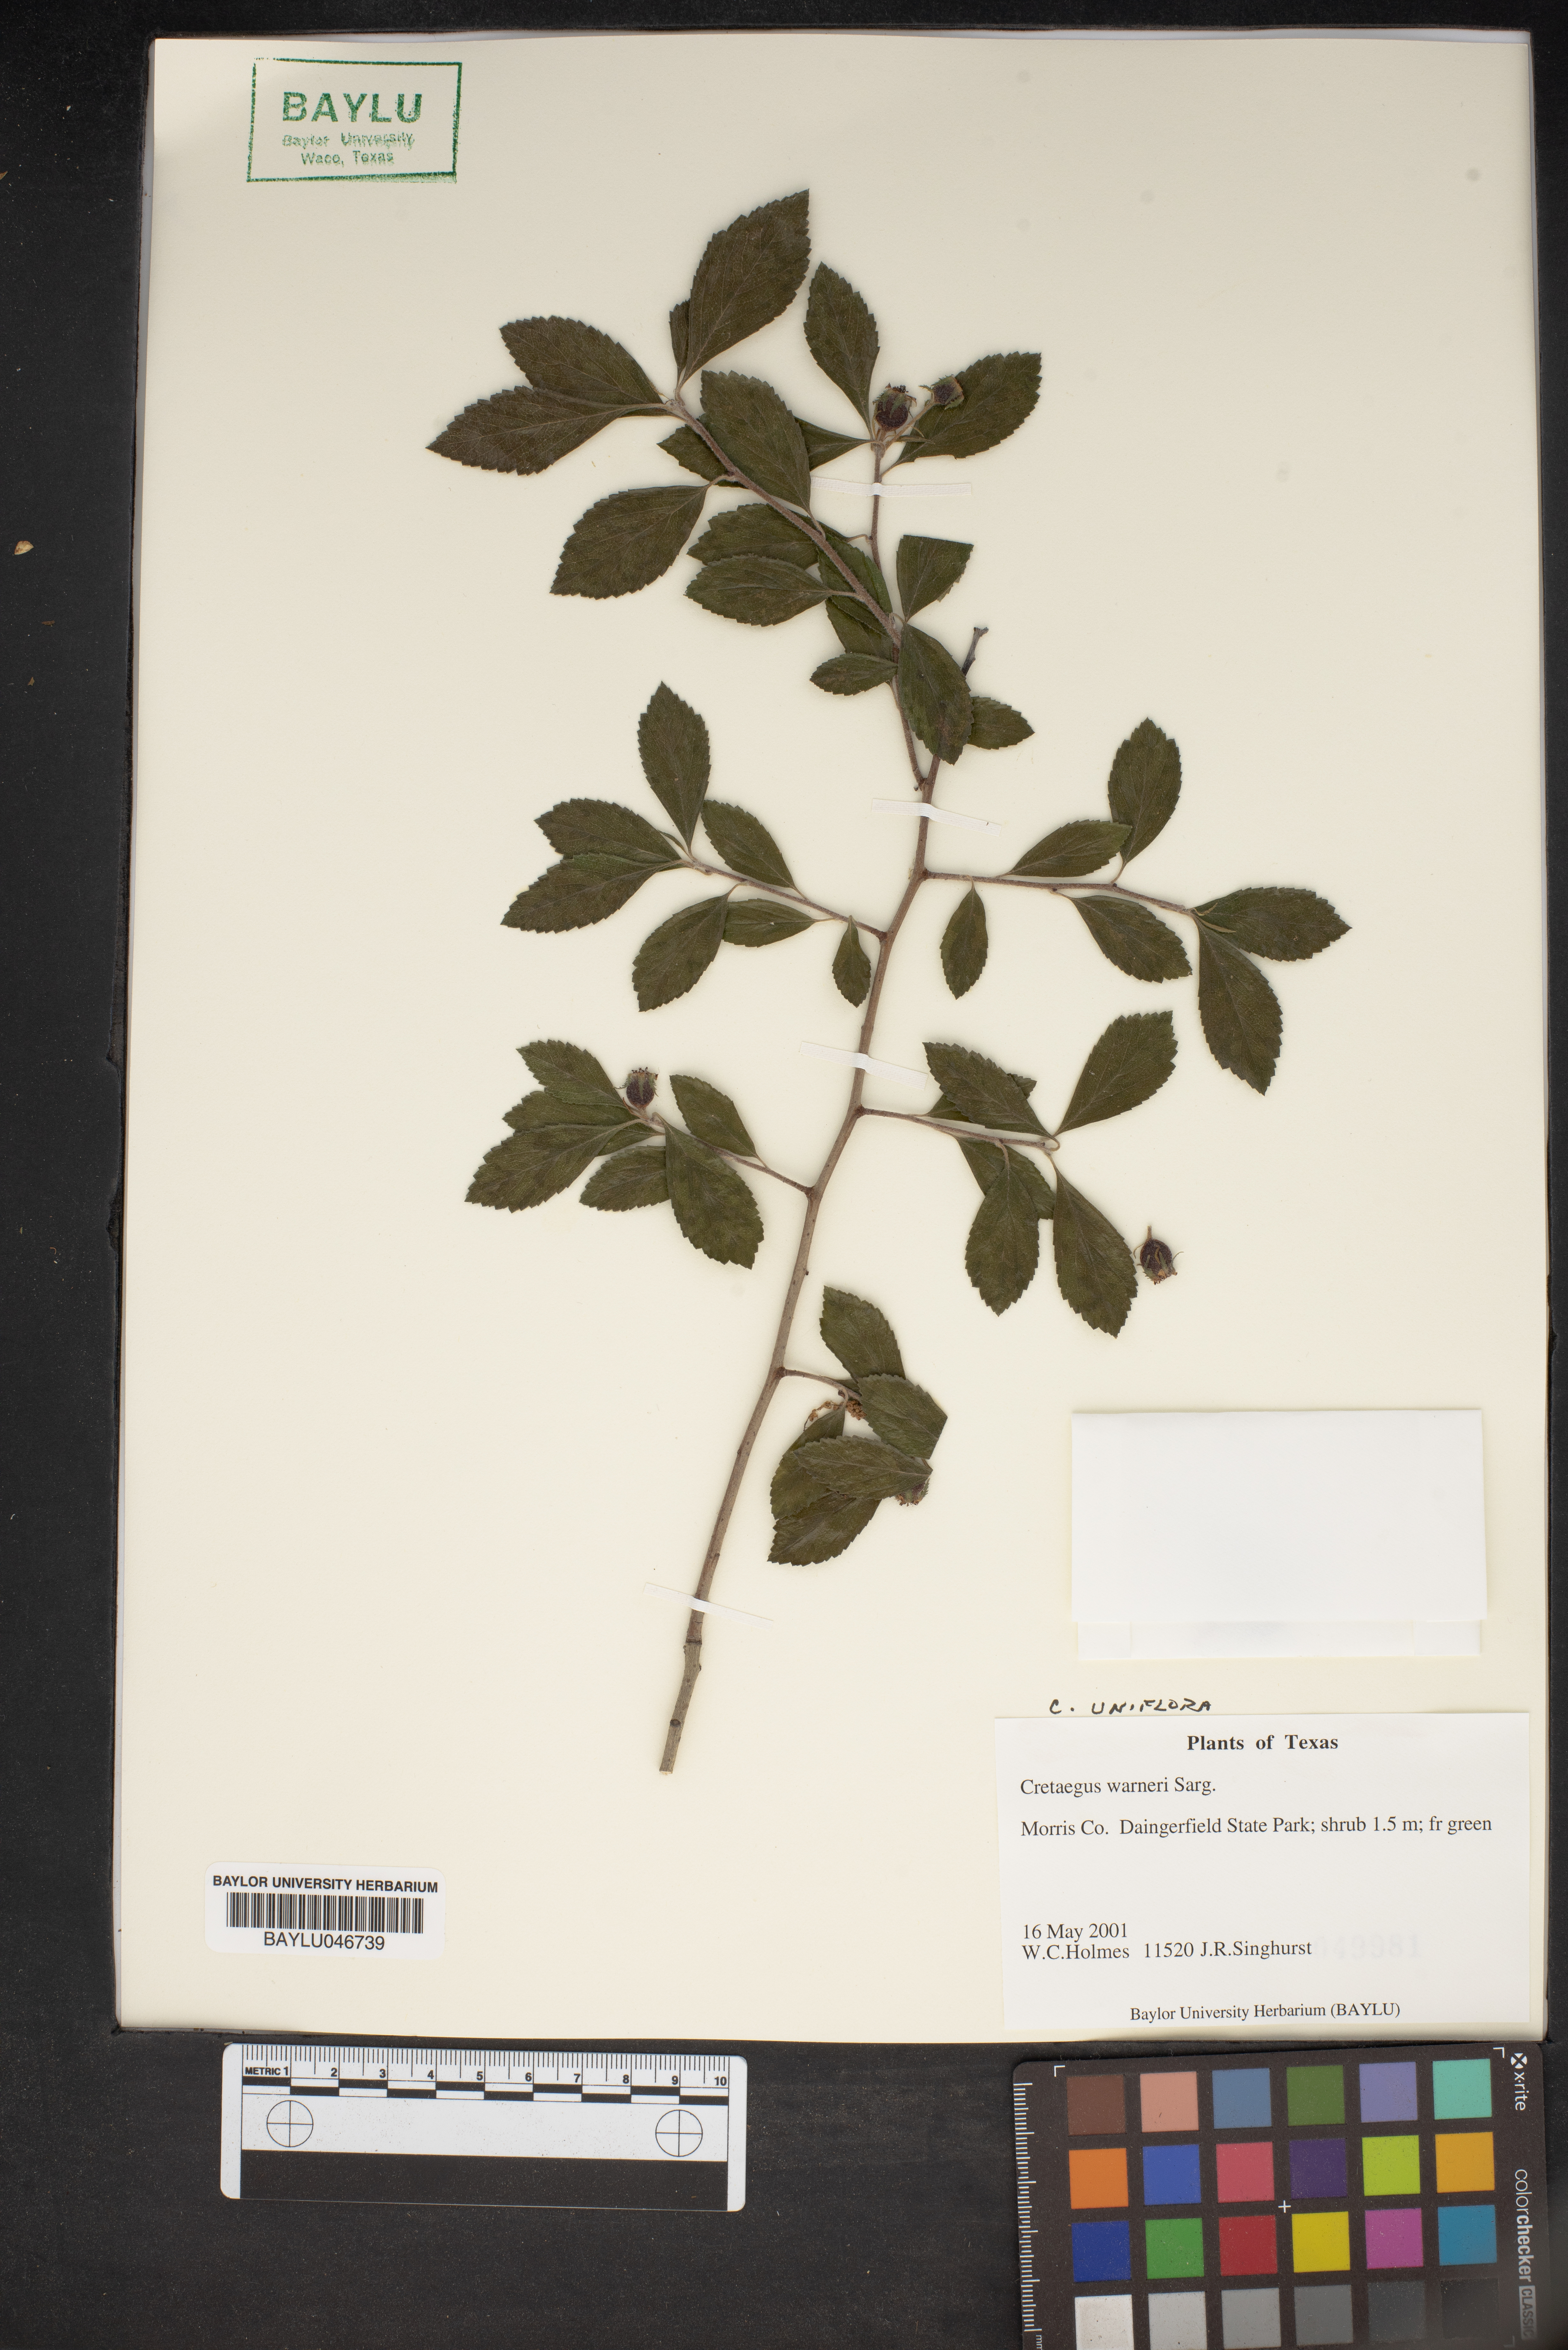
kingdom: Plantae
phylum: Tracheophyta
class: Magnoliopsida
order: Rosales
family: Rosaceae
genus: Crataegus
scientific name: Crataegus warneri
